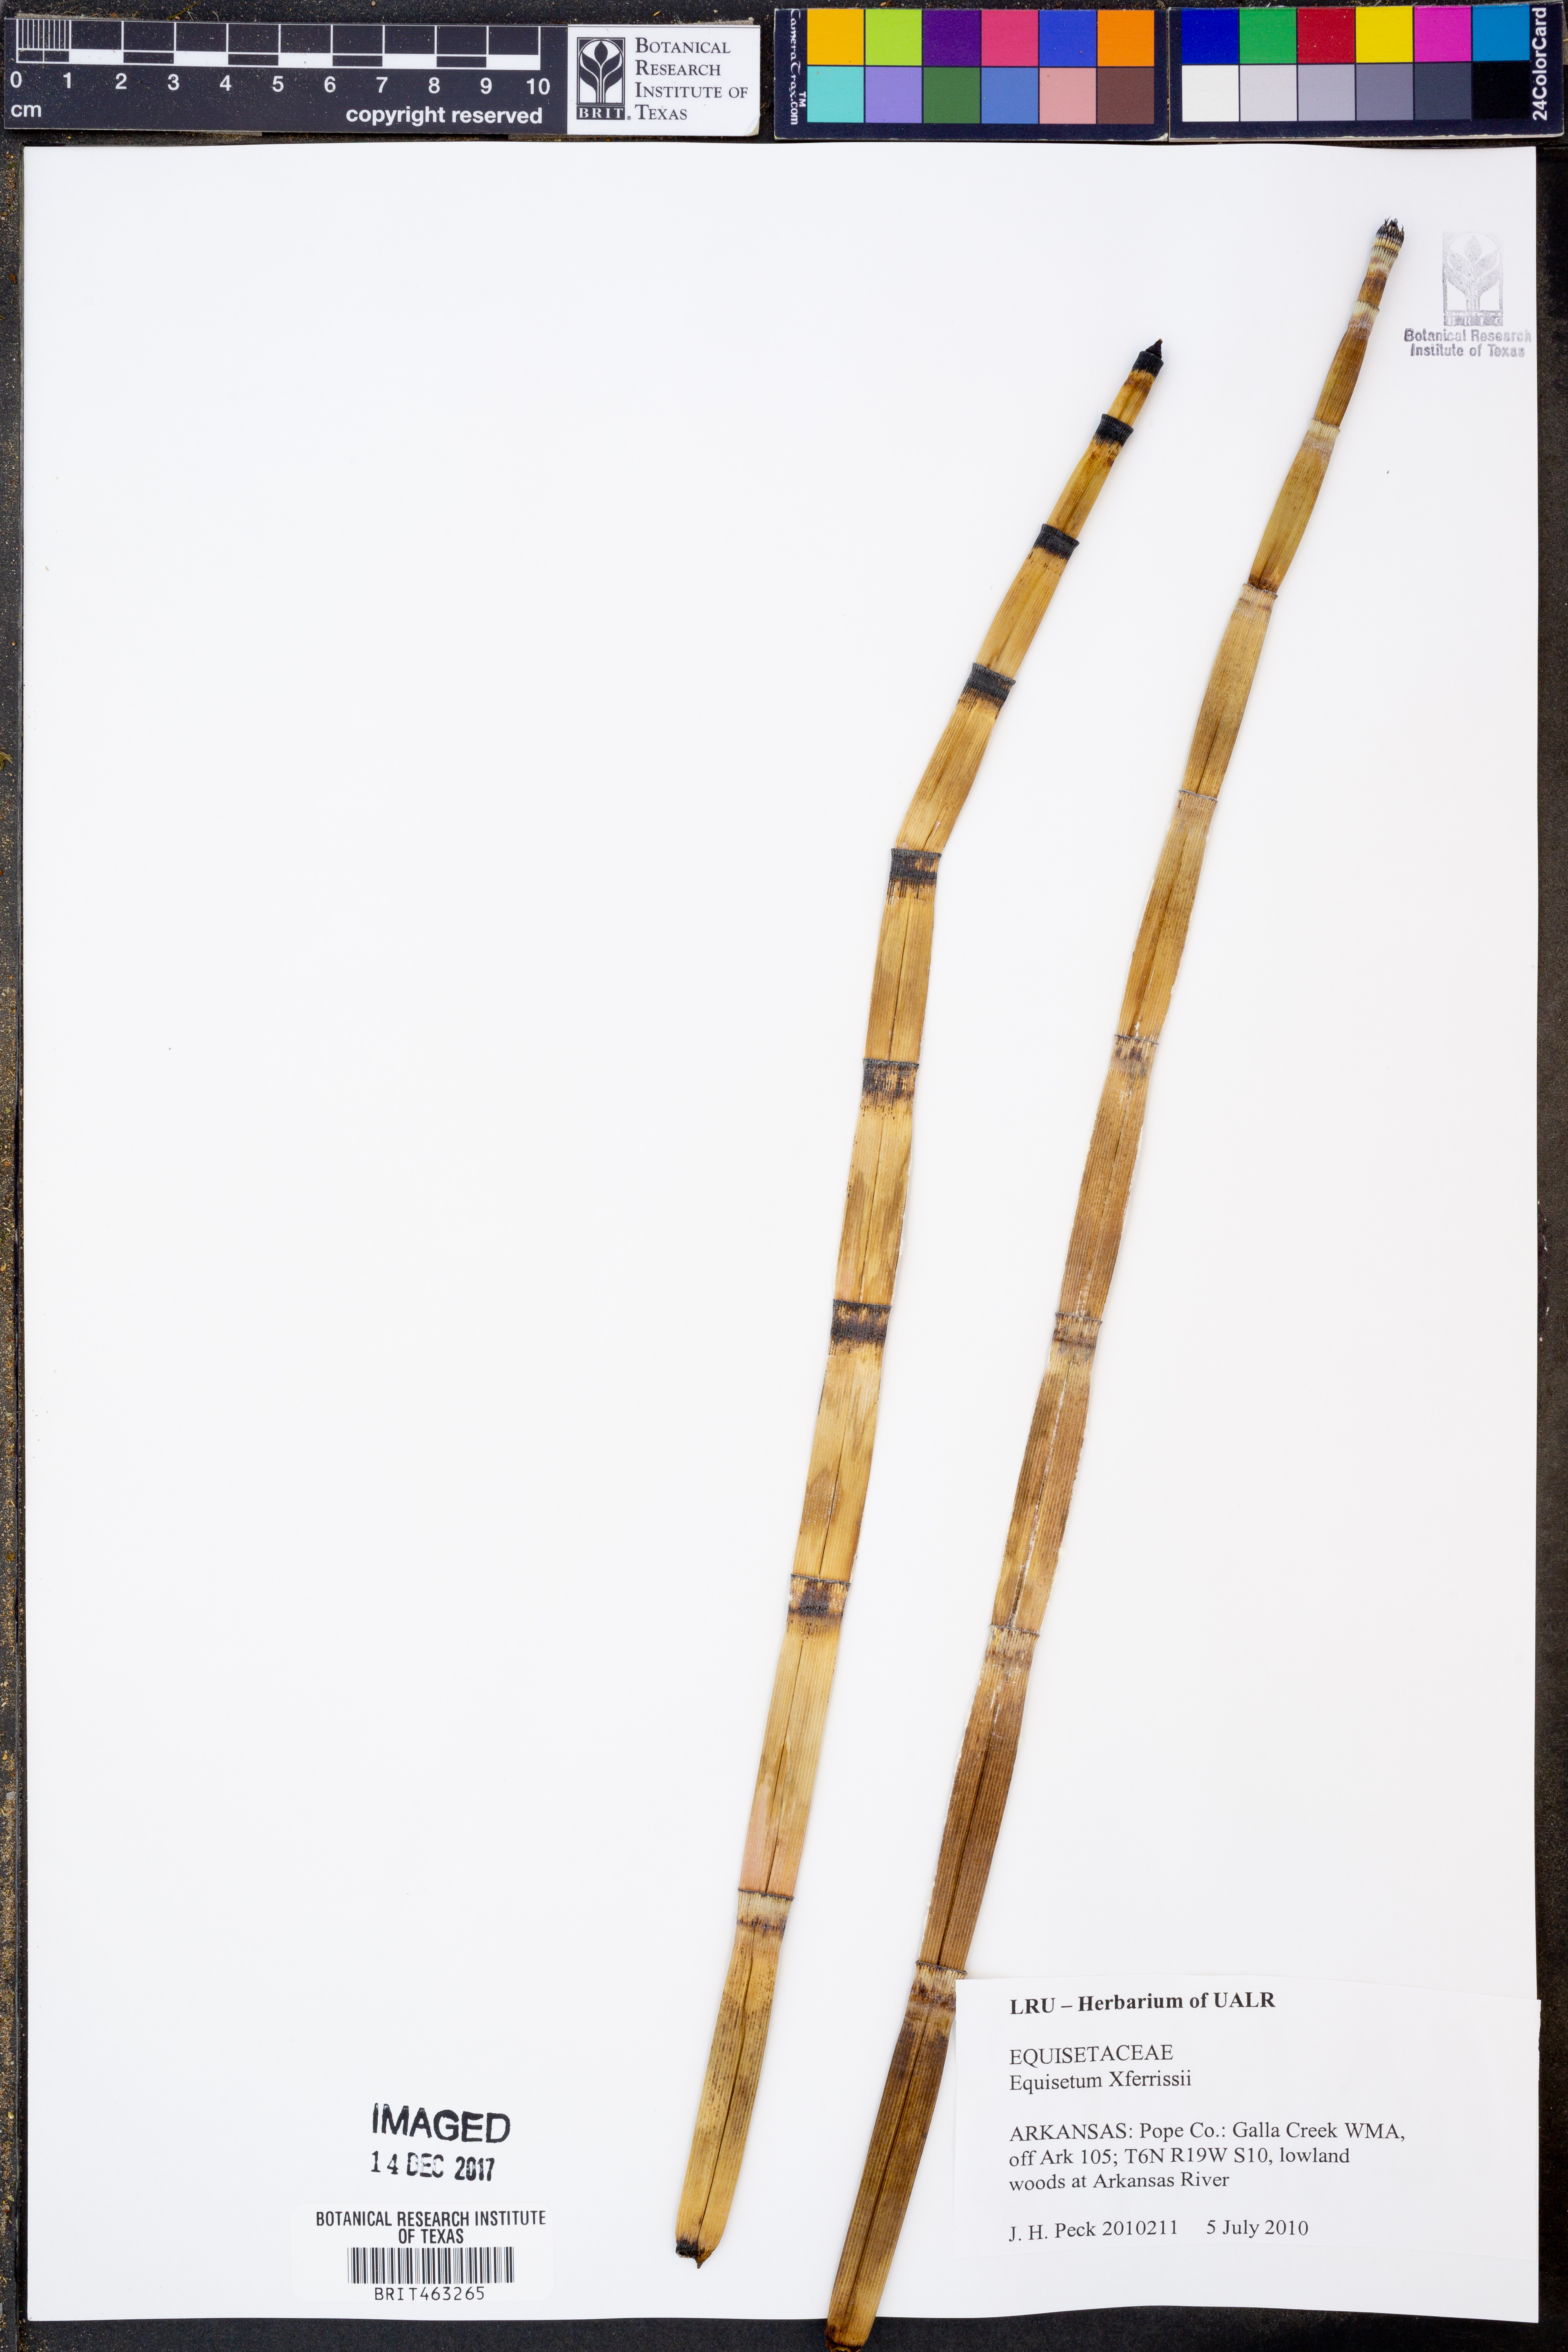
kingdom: Plantae
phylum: Tracheophyta
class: Polypodiopsida
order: Equisetales
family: Equisetaceae
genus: Equisetum
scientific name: Equisetum ferrissii
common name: Ferriss' horsetail
